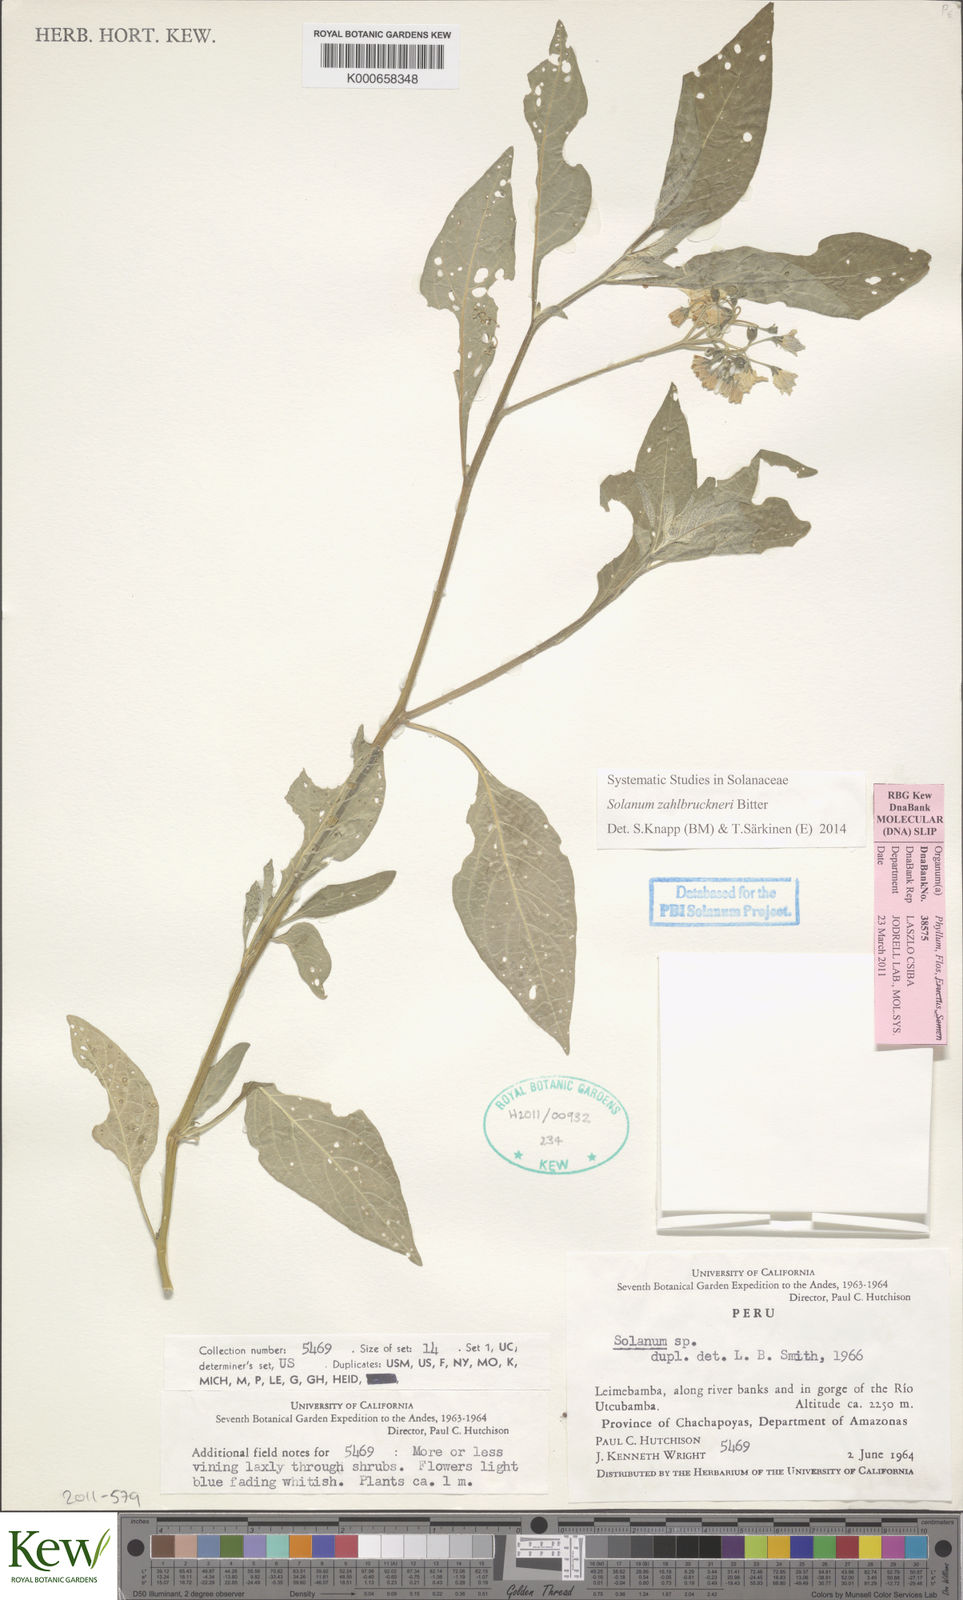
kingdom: Plantae
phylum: Tracheophyta
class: Magnoliopsida
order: Solanales
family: Solanaceae
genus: Solanum
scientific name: Solanum aloysiifolium
